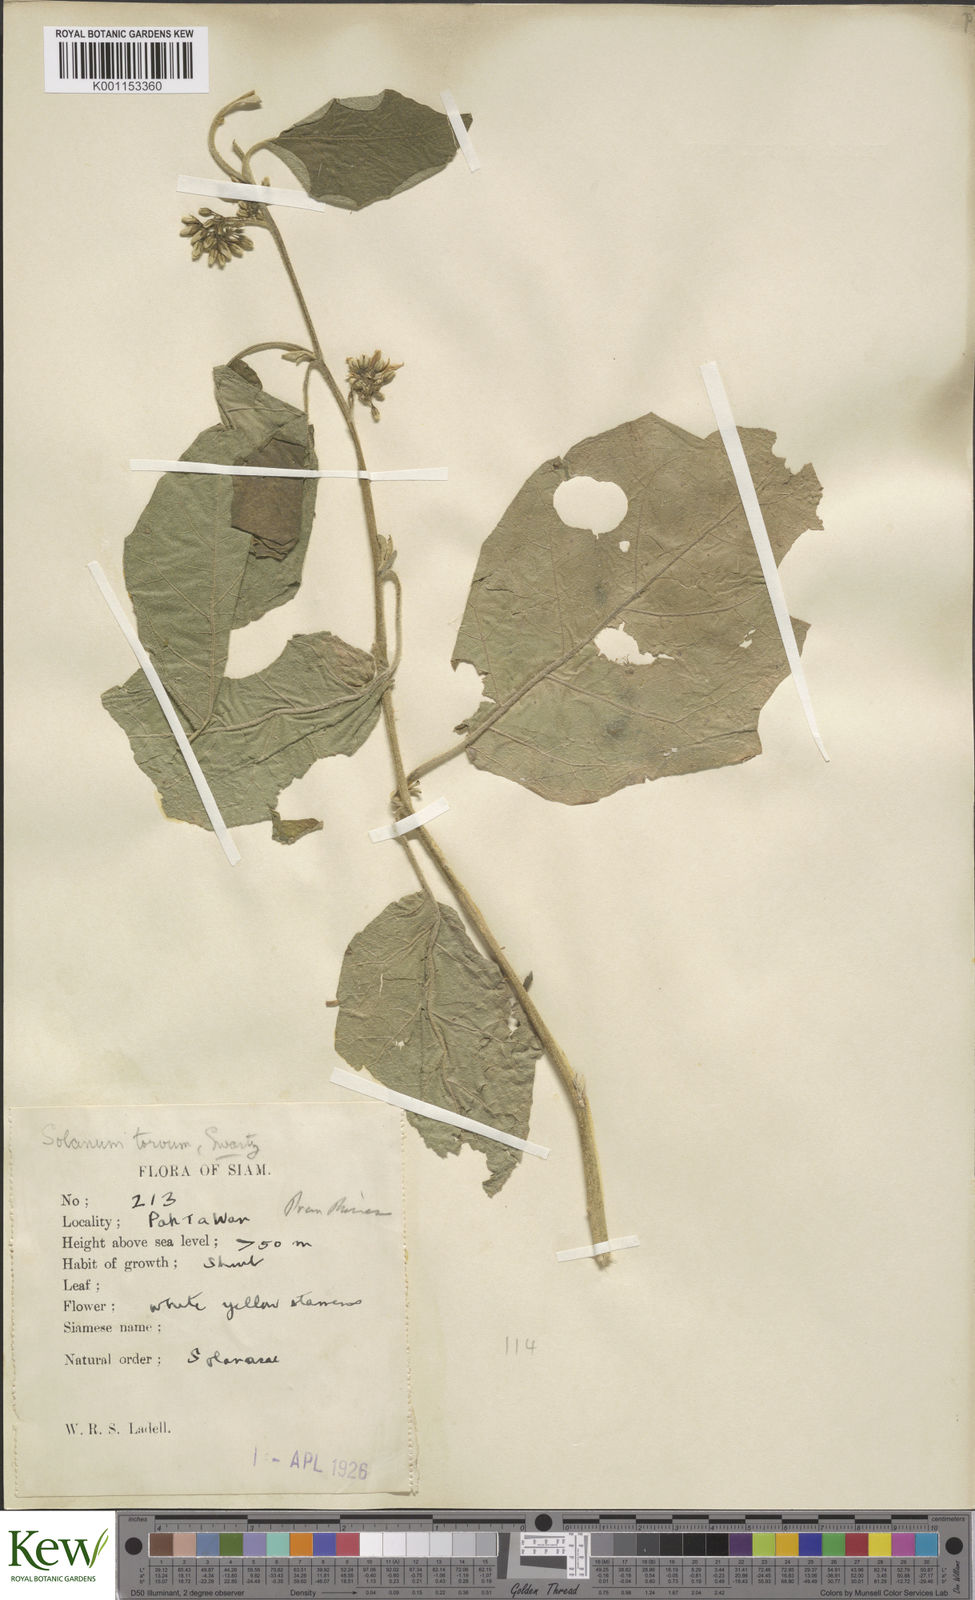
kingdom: Plantae
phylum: Tracheophyta
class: Magnoliopsida
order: Solanales
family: Solanaceae
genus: Solanum
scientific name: Solanum torvum
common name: Turkey berry
